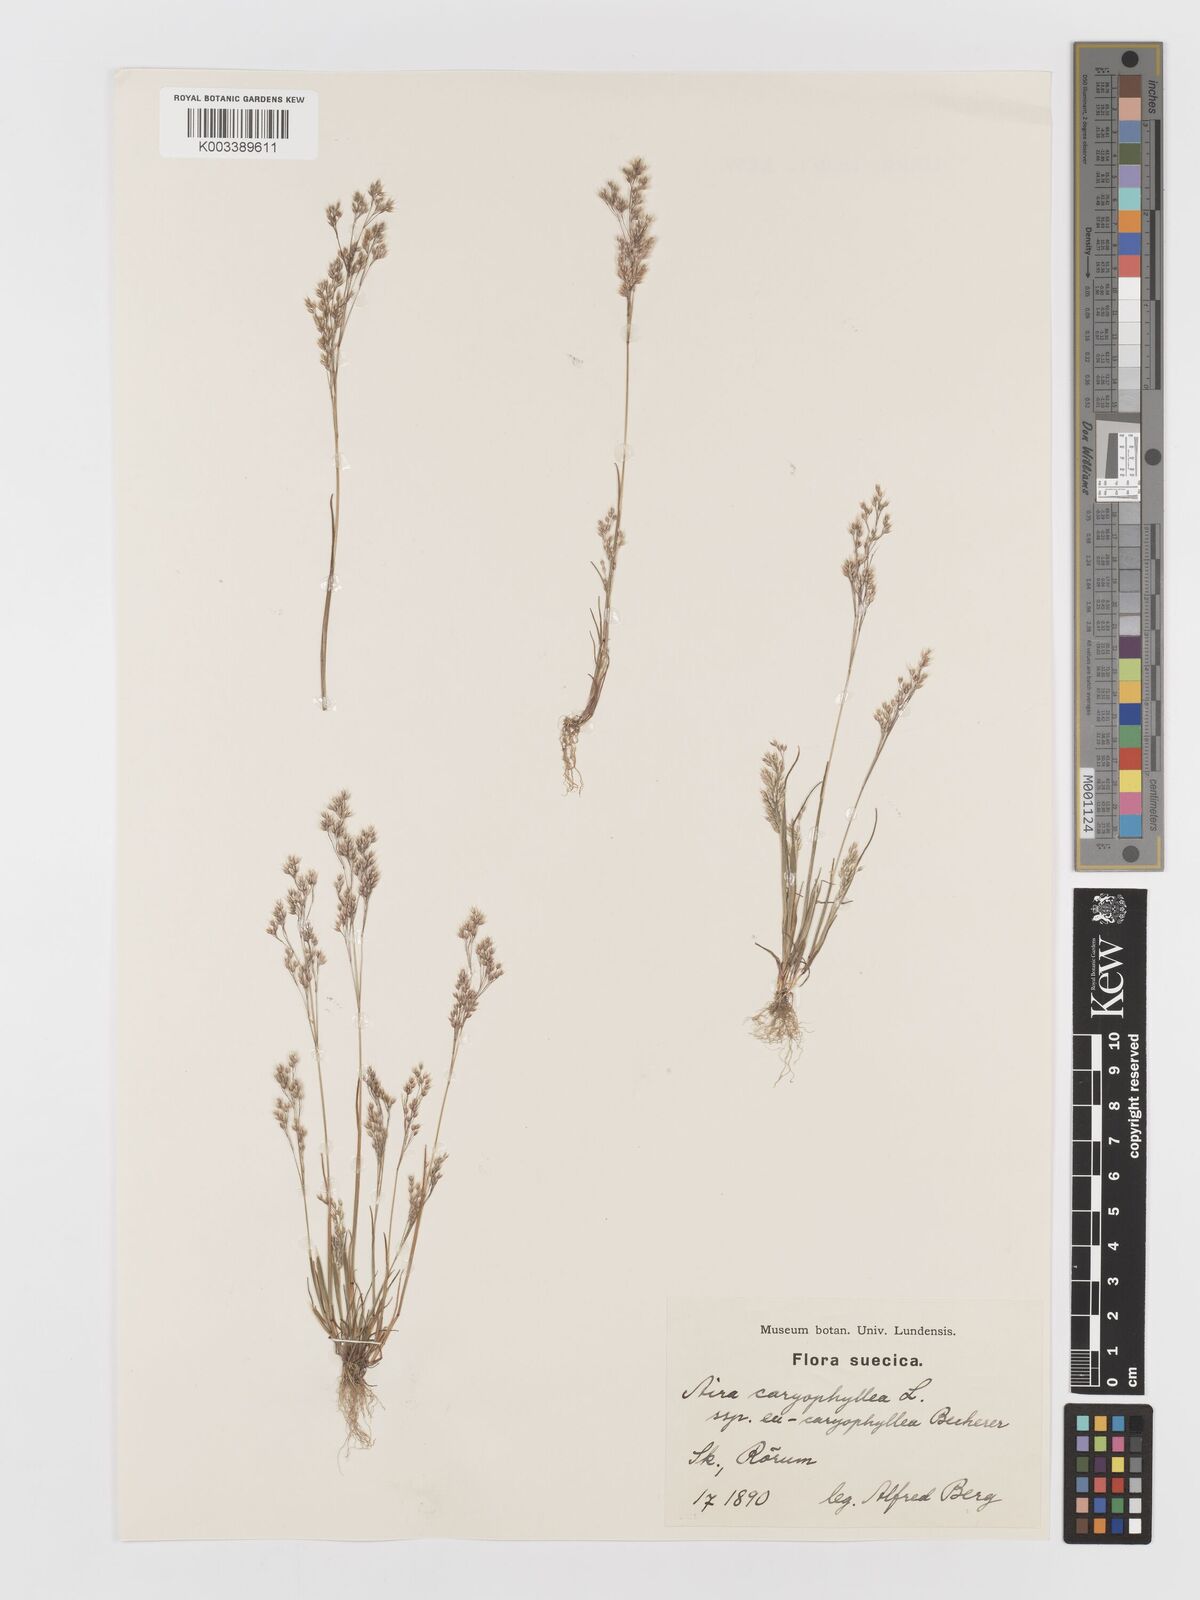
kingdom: Plantae
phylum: Tracheophyta
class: Liliopsida
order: Poales
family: Poaceae
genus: Aira
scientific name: Aira caryophyllea
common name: Silver hairgrass
